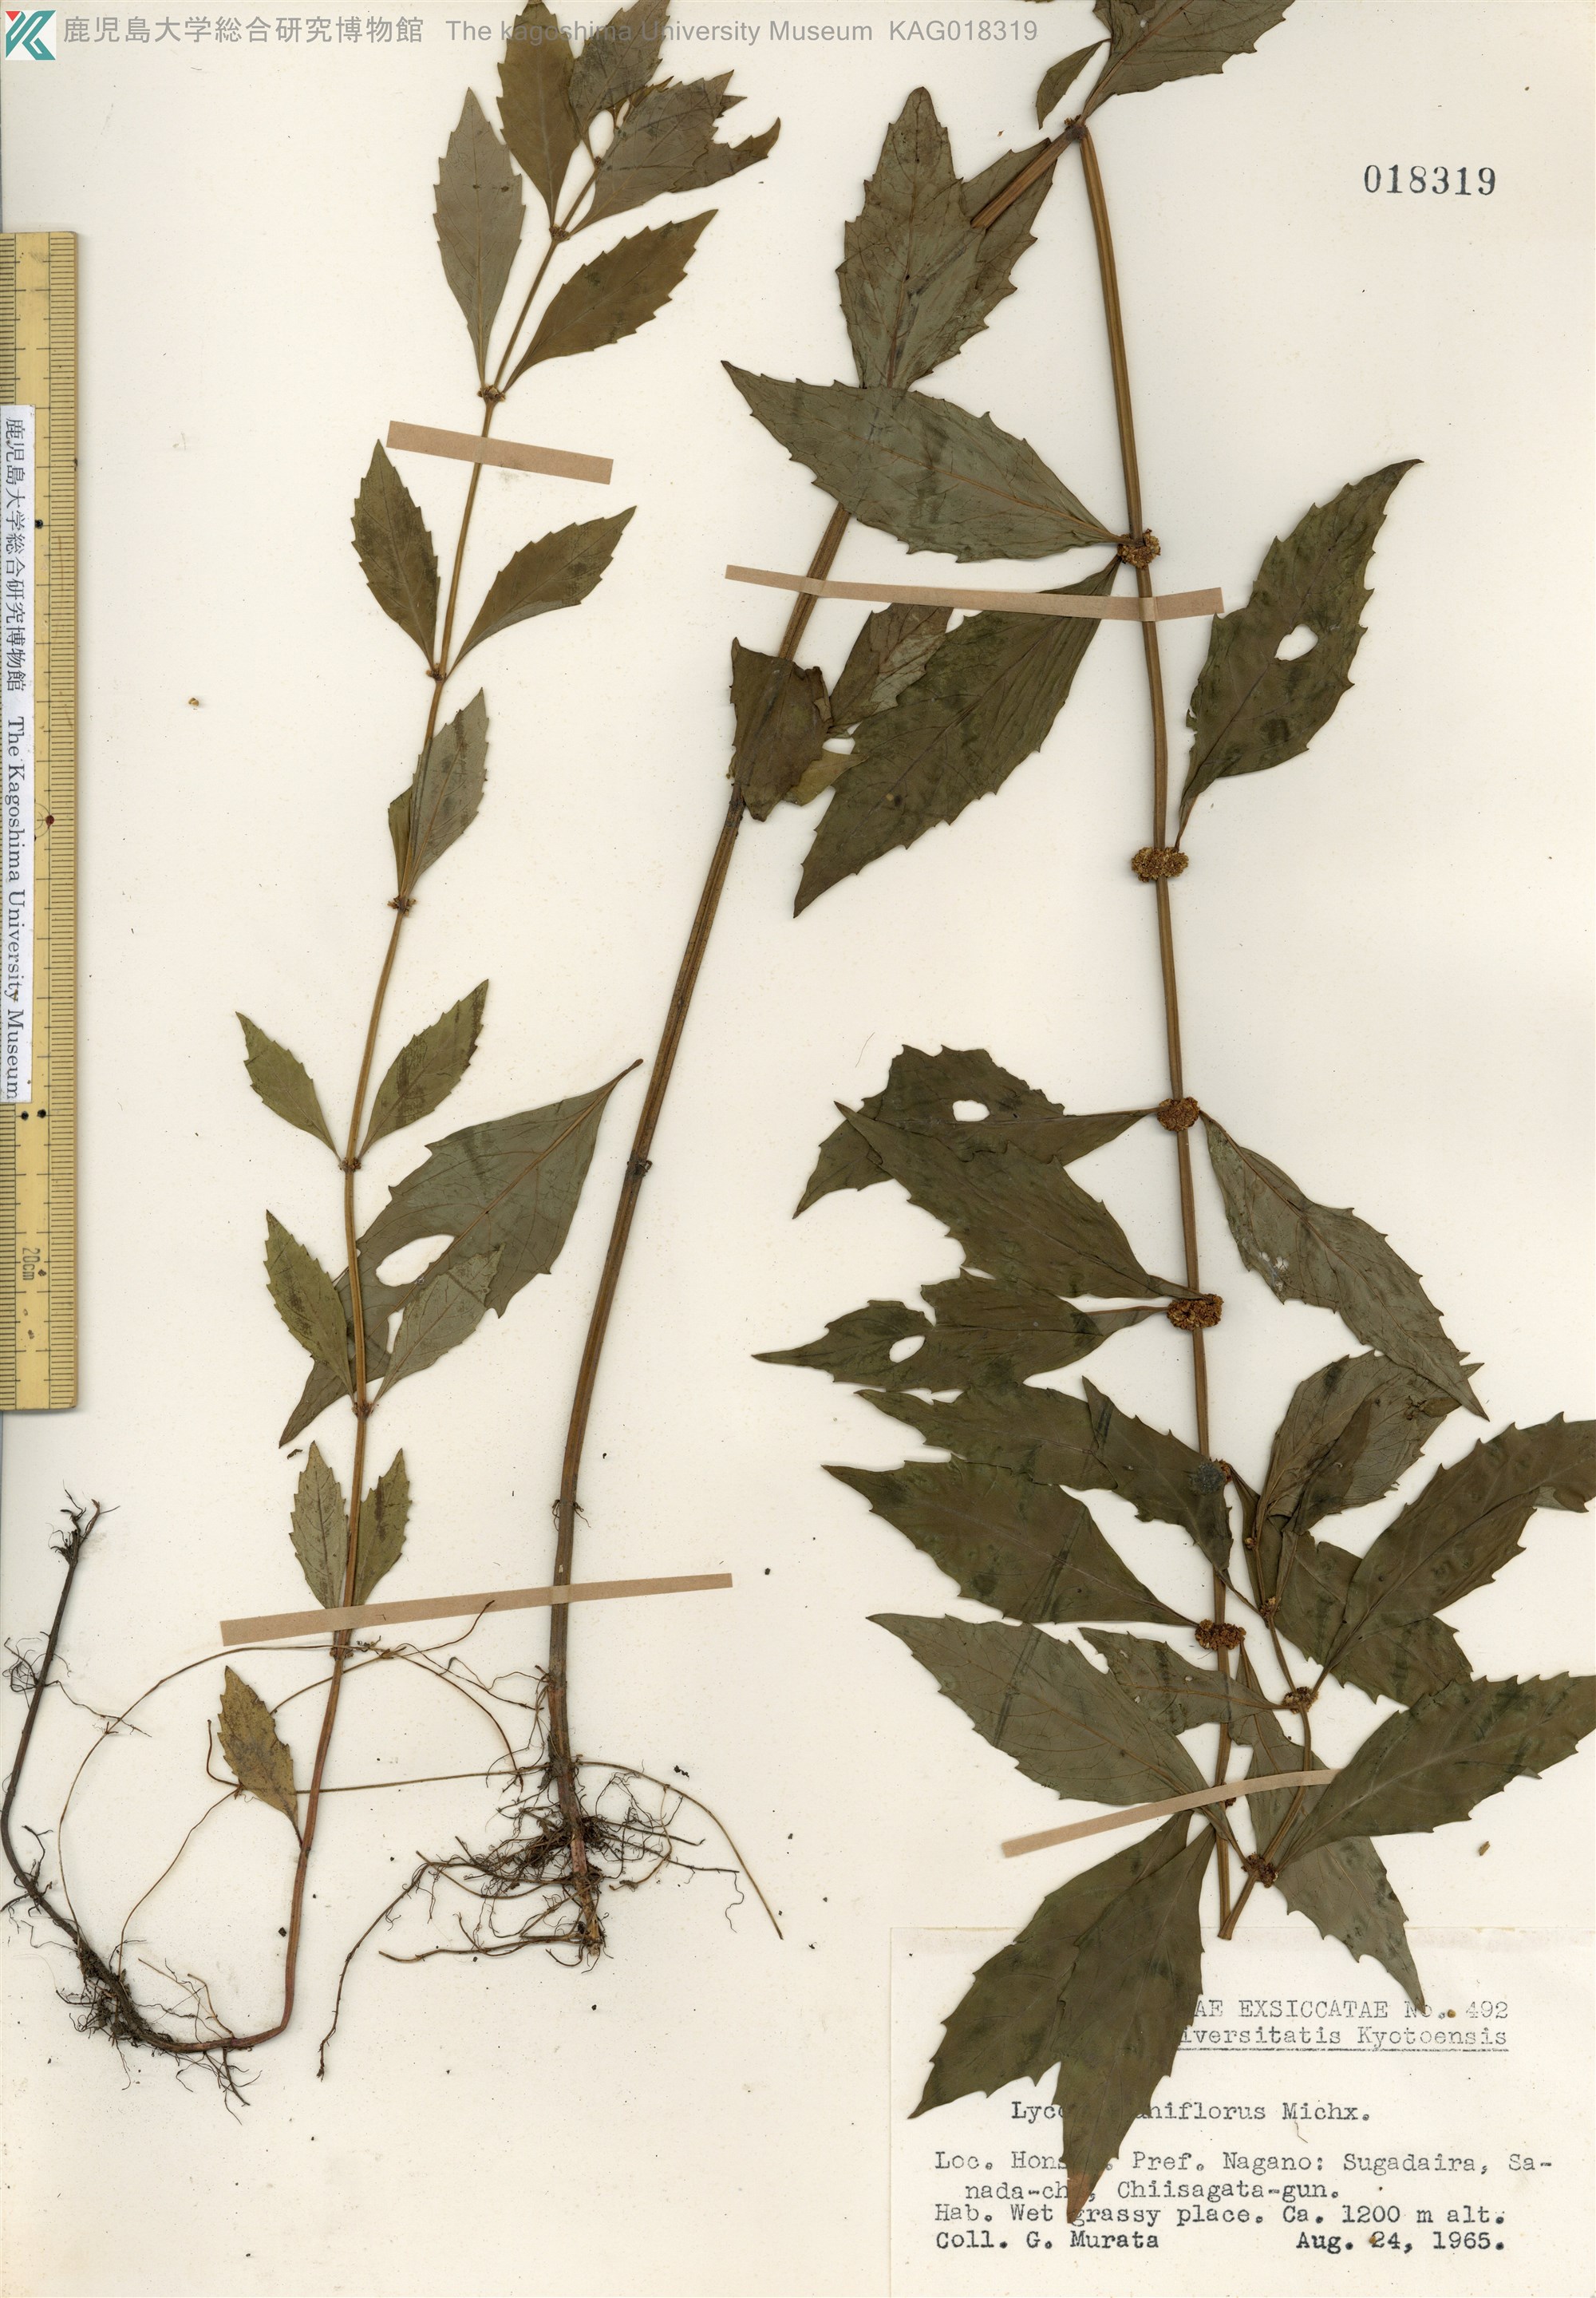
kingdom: Plantae
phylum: Tracheophyta
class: Magnoliopsida
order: Lamiales
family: Lamiaceae
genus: Lycopus
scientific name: Lycopus uniflorus
